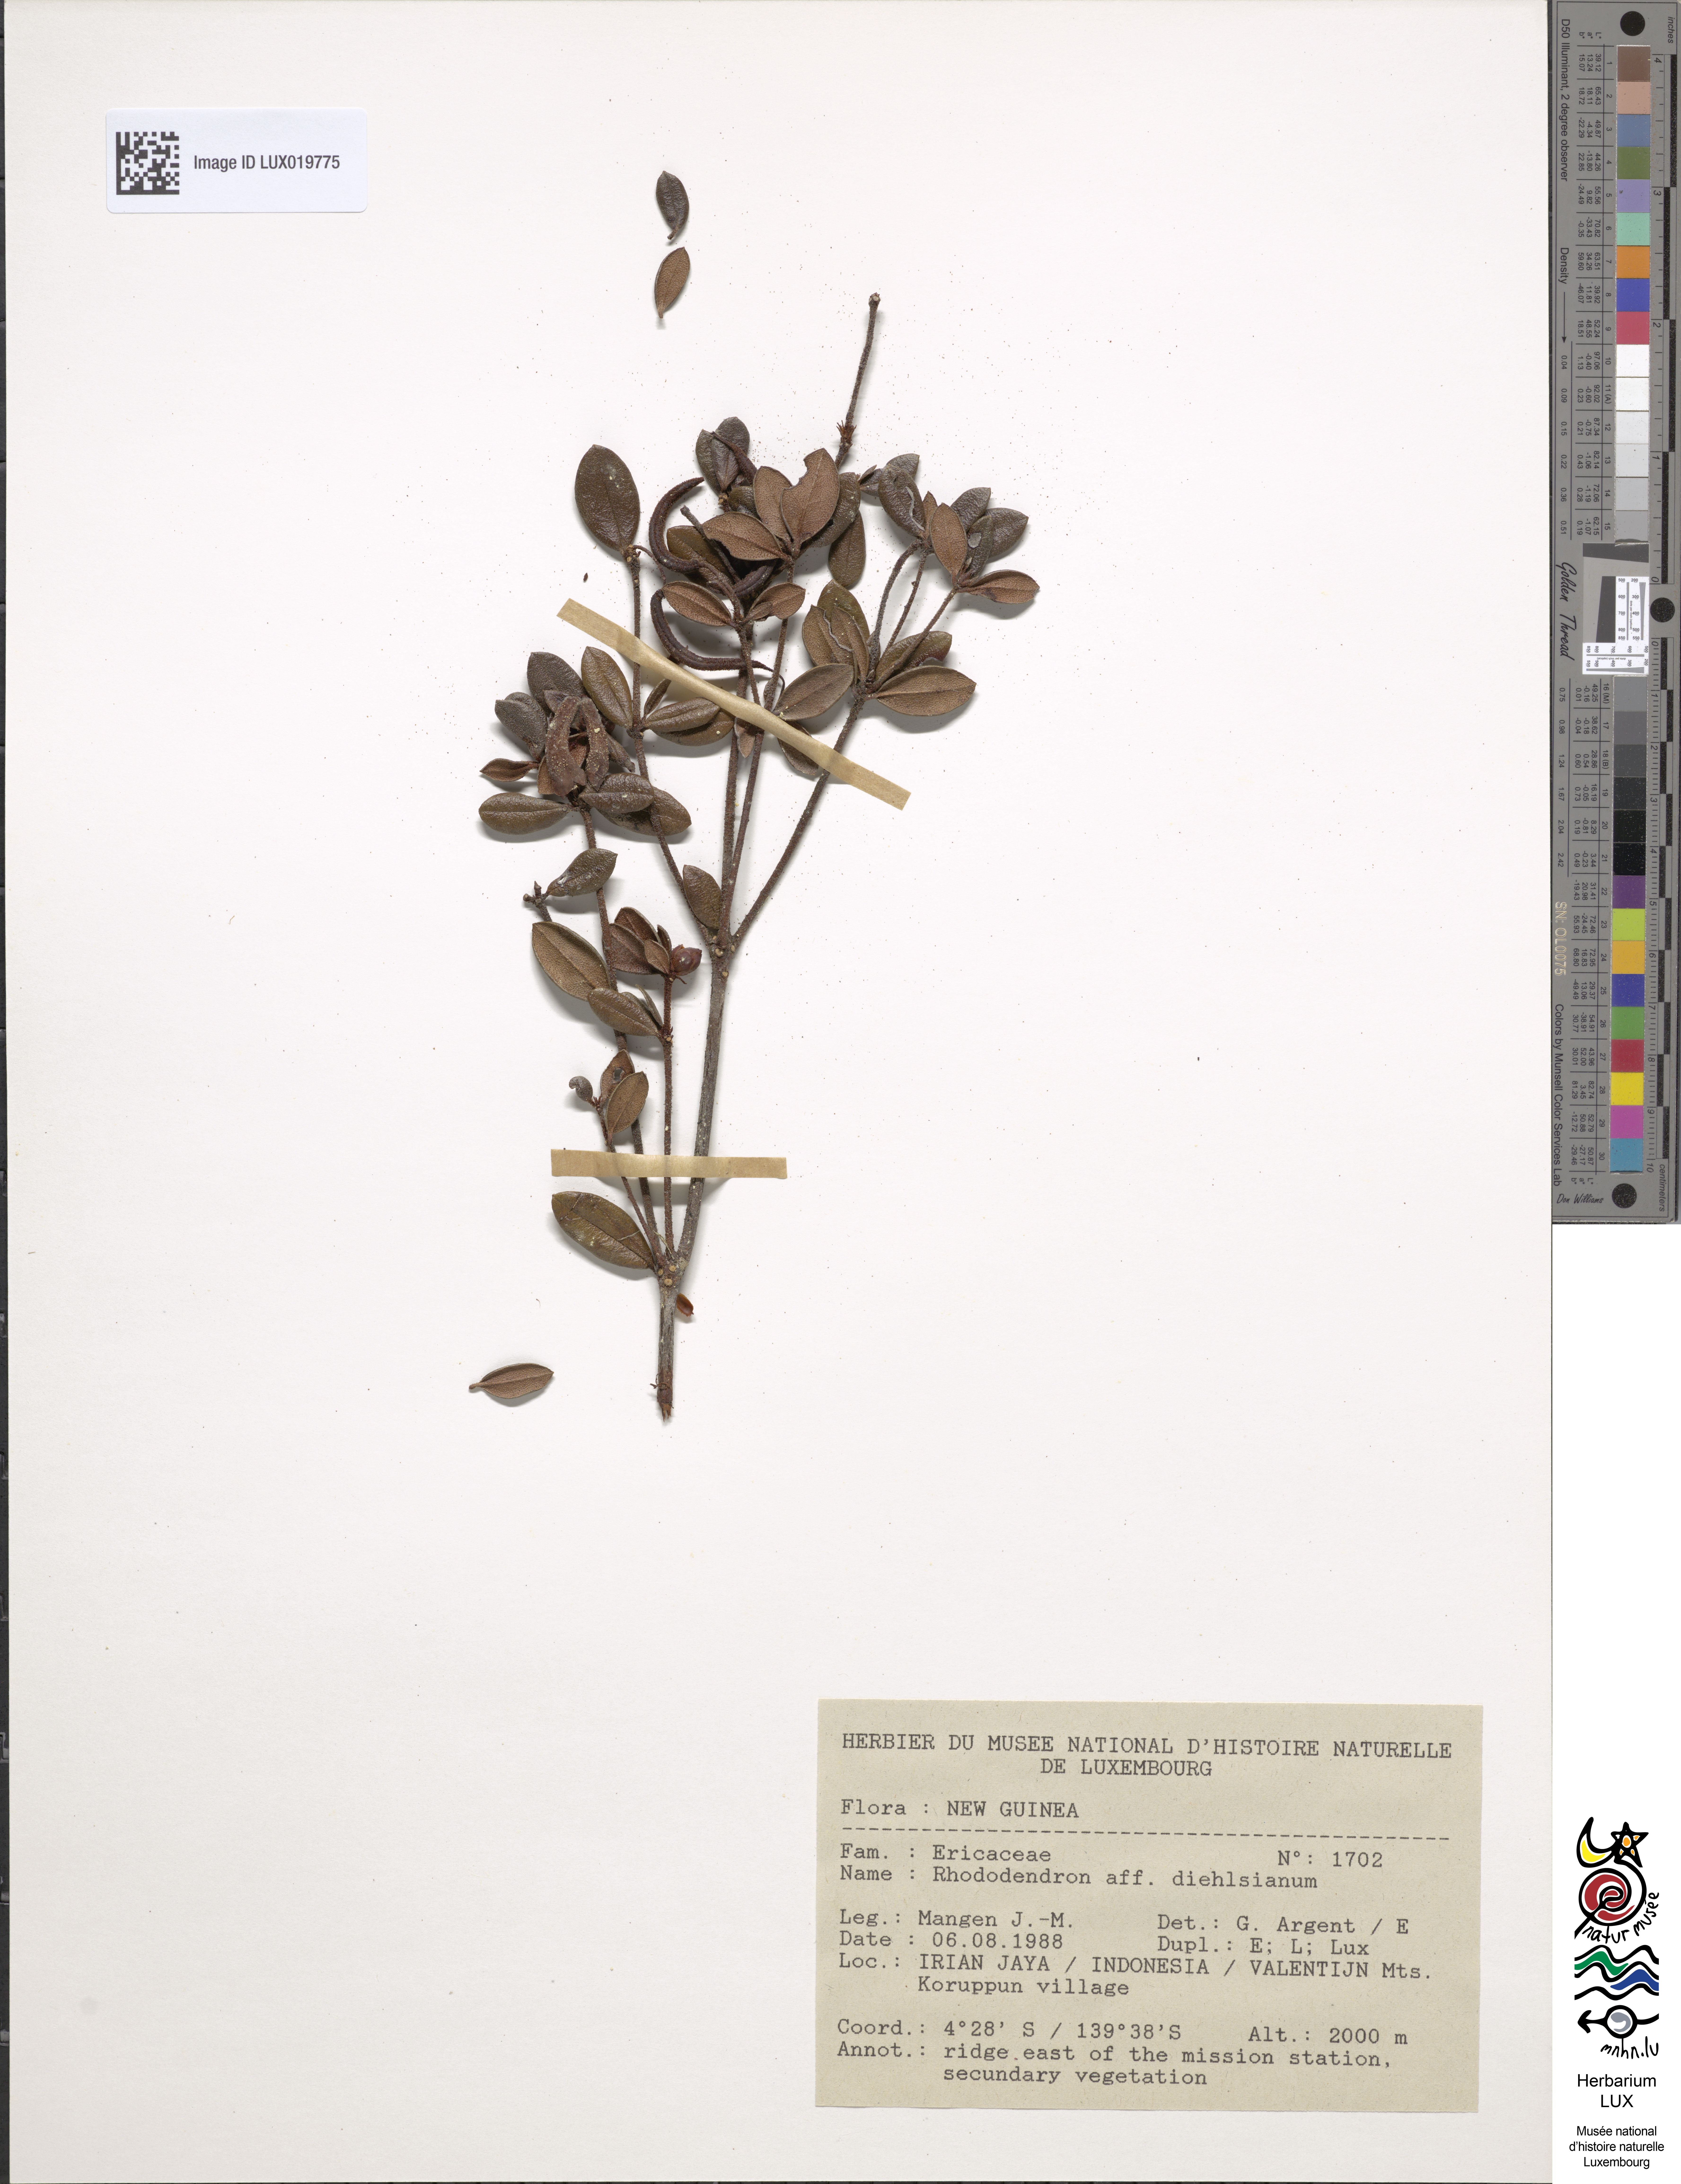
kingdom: Plantae
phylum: Tracheophyta
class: Magnoliopsida
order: Ericales
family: Ericaceae
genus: Rhododendron
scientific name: Rhododendron dielsianum
